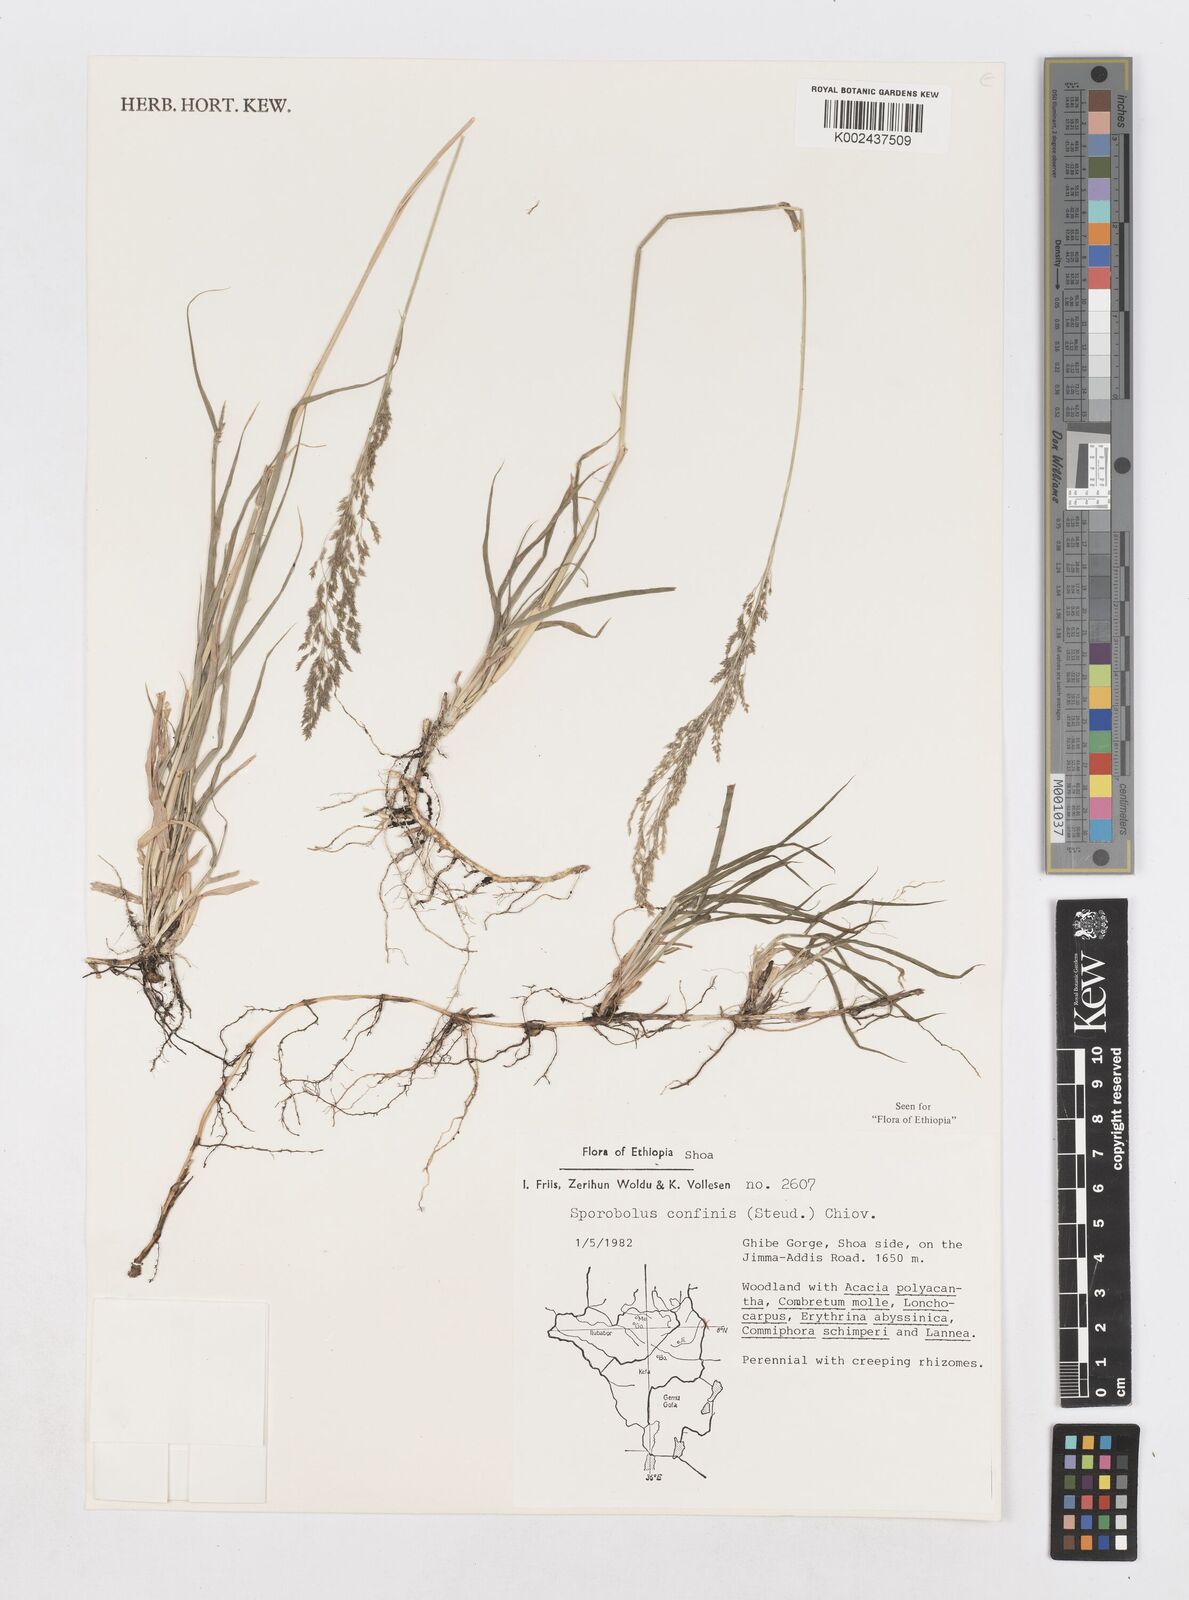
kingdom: Plantae
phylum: Tracheophyta
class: Liliopsida
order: Poales
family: Poaceae
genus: Sporobolus
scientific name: Sporobolus confinis
